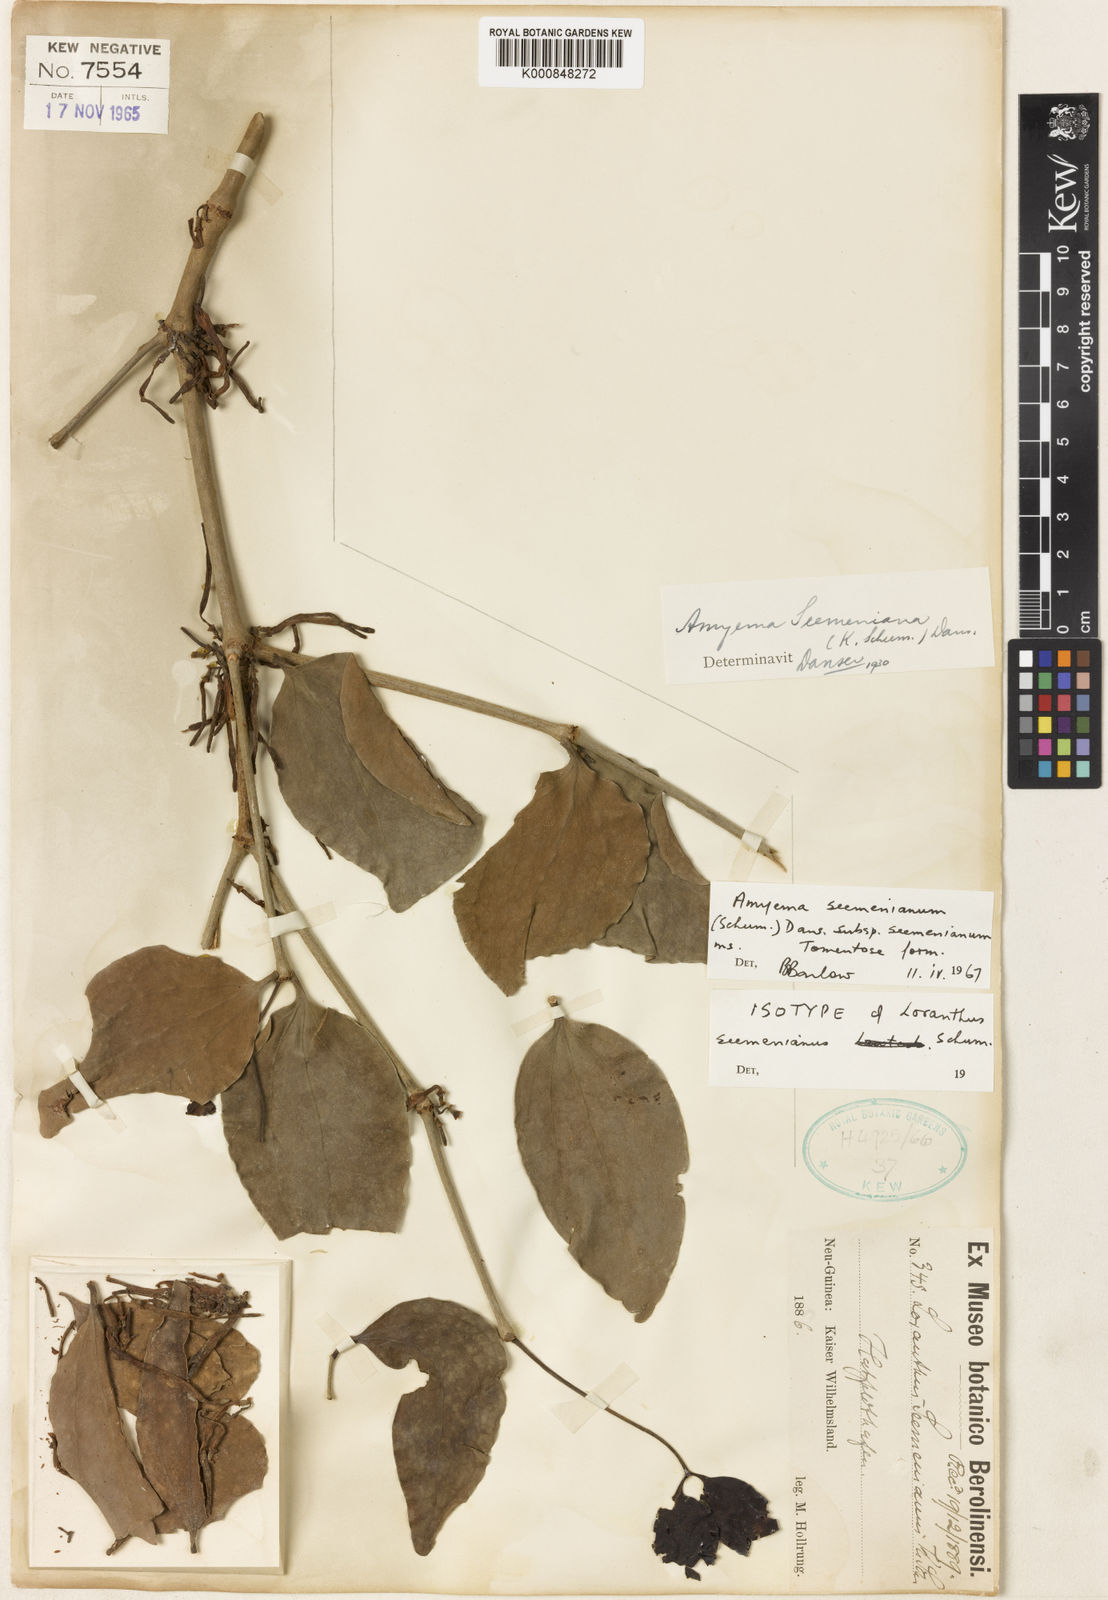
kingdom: Plantae
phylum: Tracheophyta
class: Magnoliopsida
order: Santalales
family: Loranthaceae
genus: Amyema
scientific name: Amyema seemeniana
